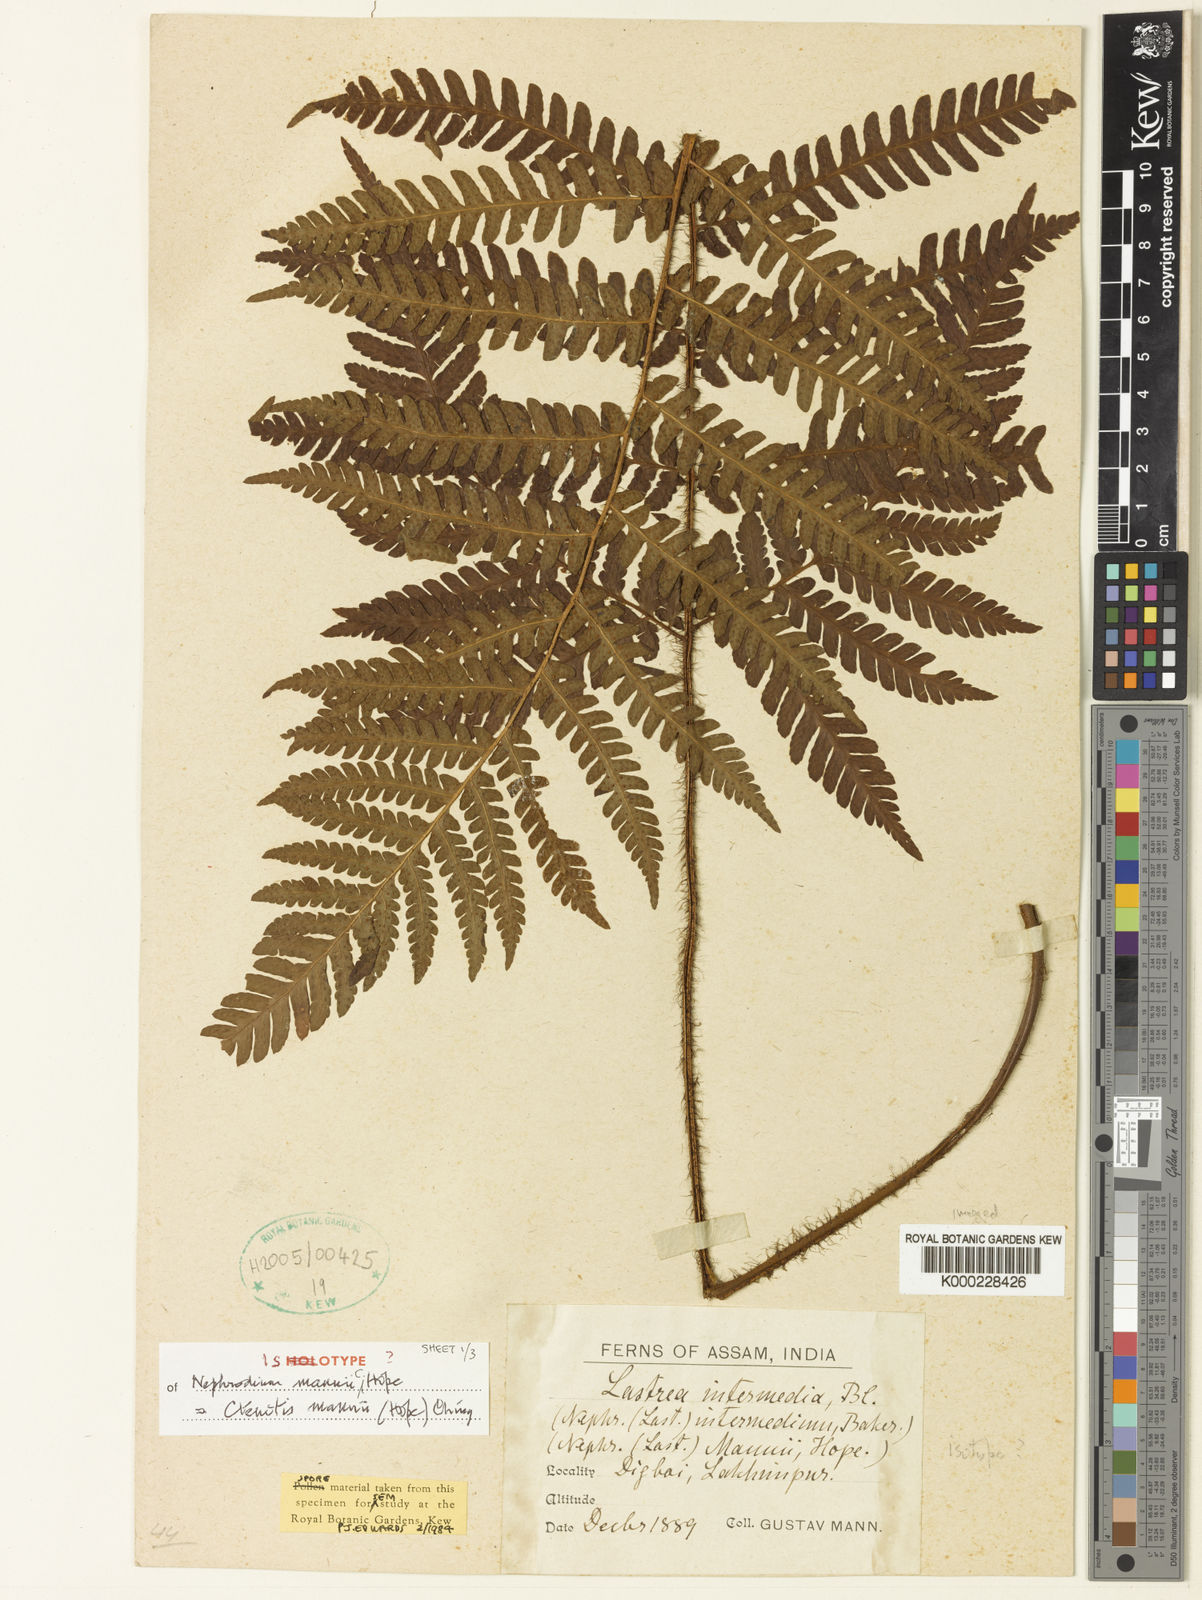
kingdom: Plantae
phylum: Tracheophyta
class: Polypodiopsida
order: Polypodiales
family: Dryopteridaceae
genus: Ctenitis
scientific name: Ctenitis mannii
